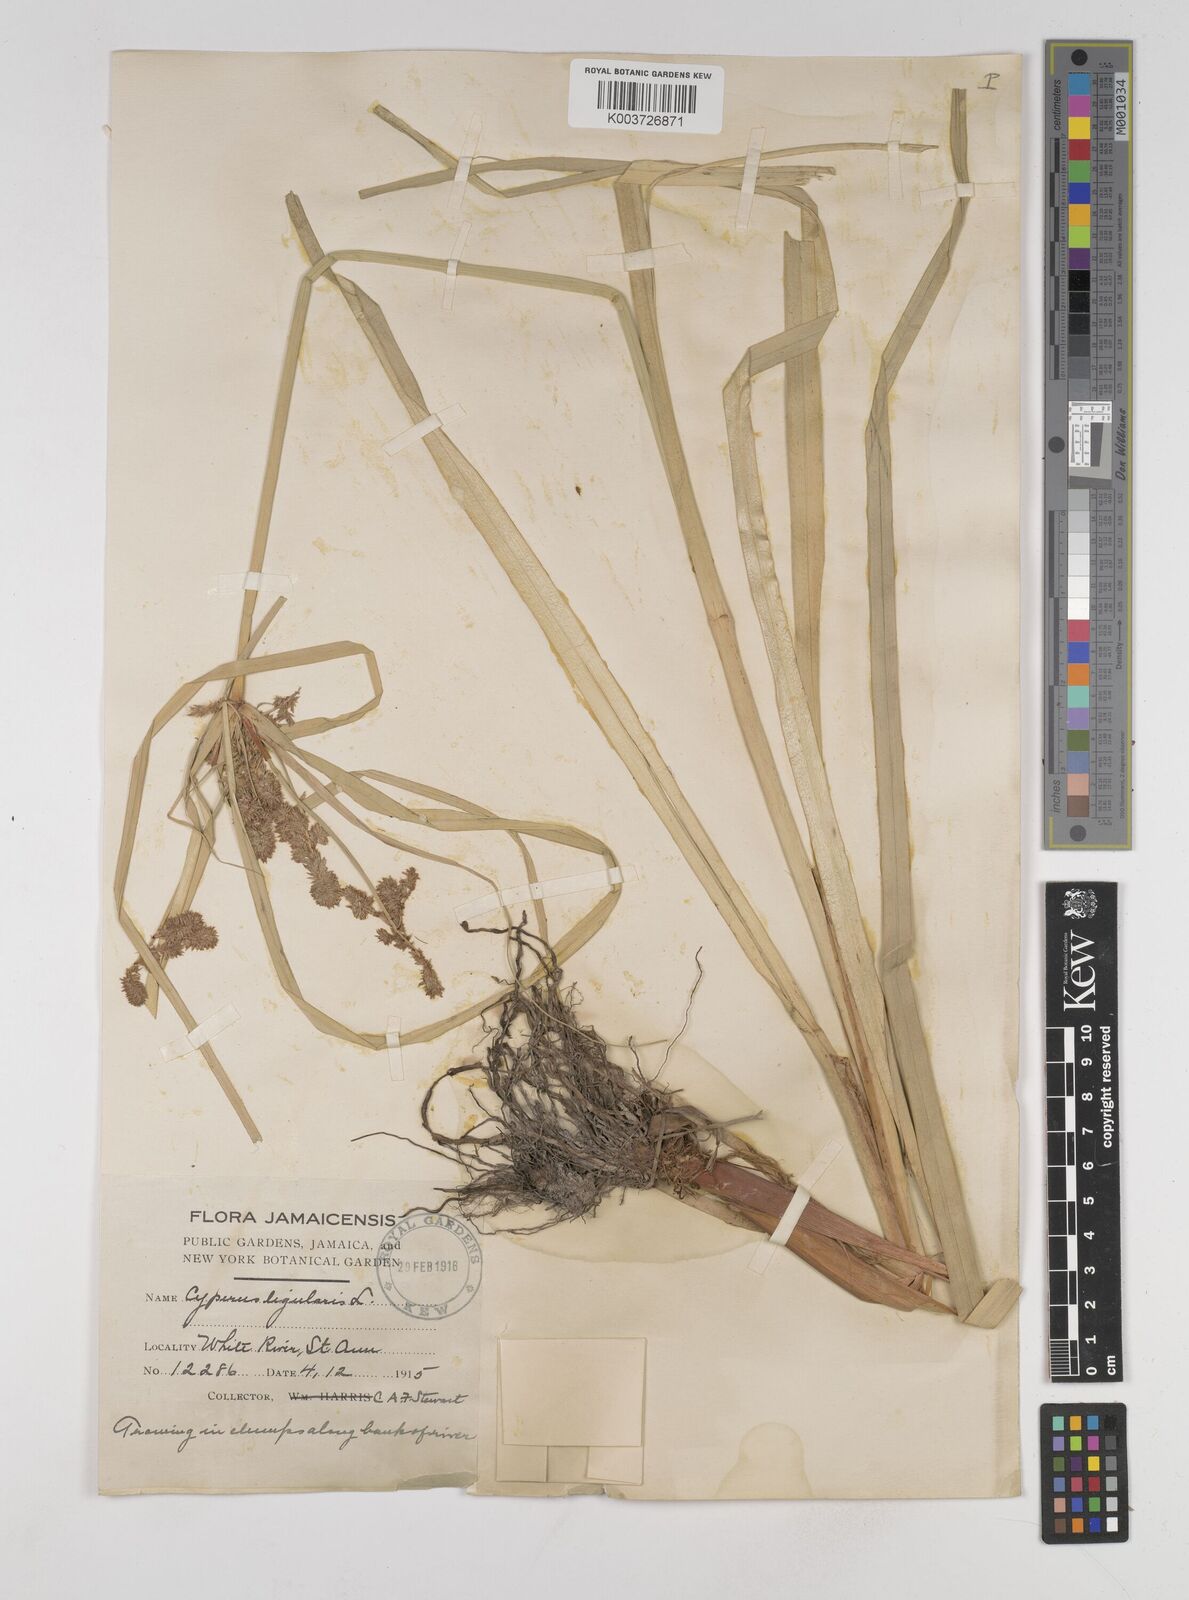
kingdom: Plantae
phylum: Tracheophyta
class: Liliopsida
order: Poales
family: Cyperaceae
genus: Cyperus
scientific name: Cyperus ligularis
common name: Swamp flat sedge
